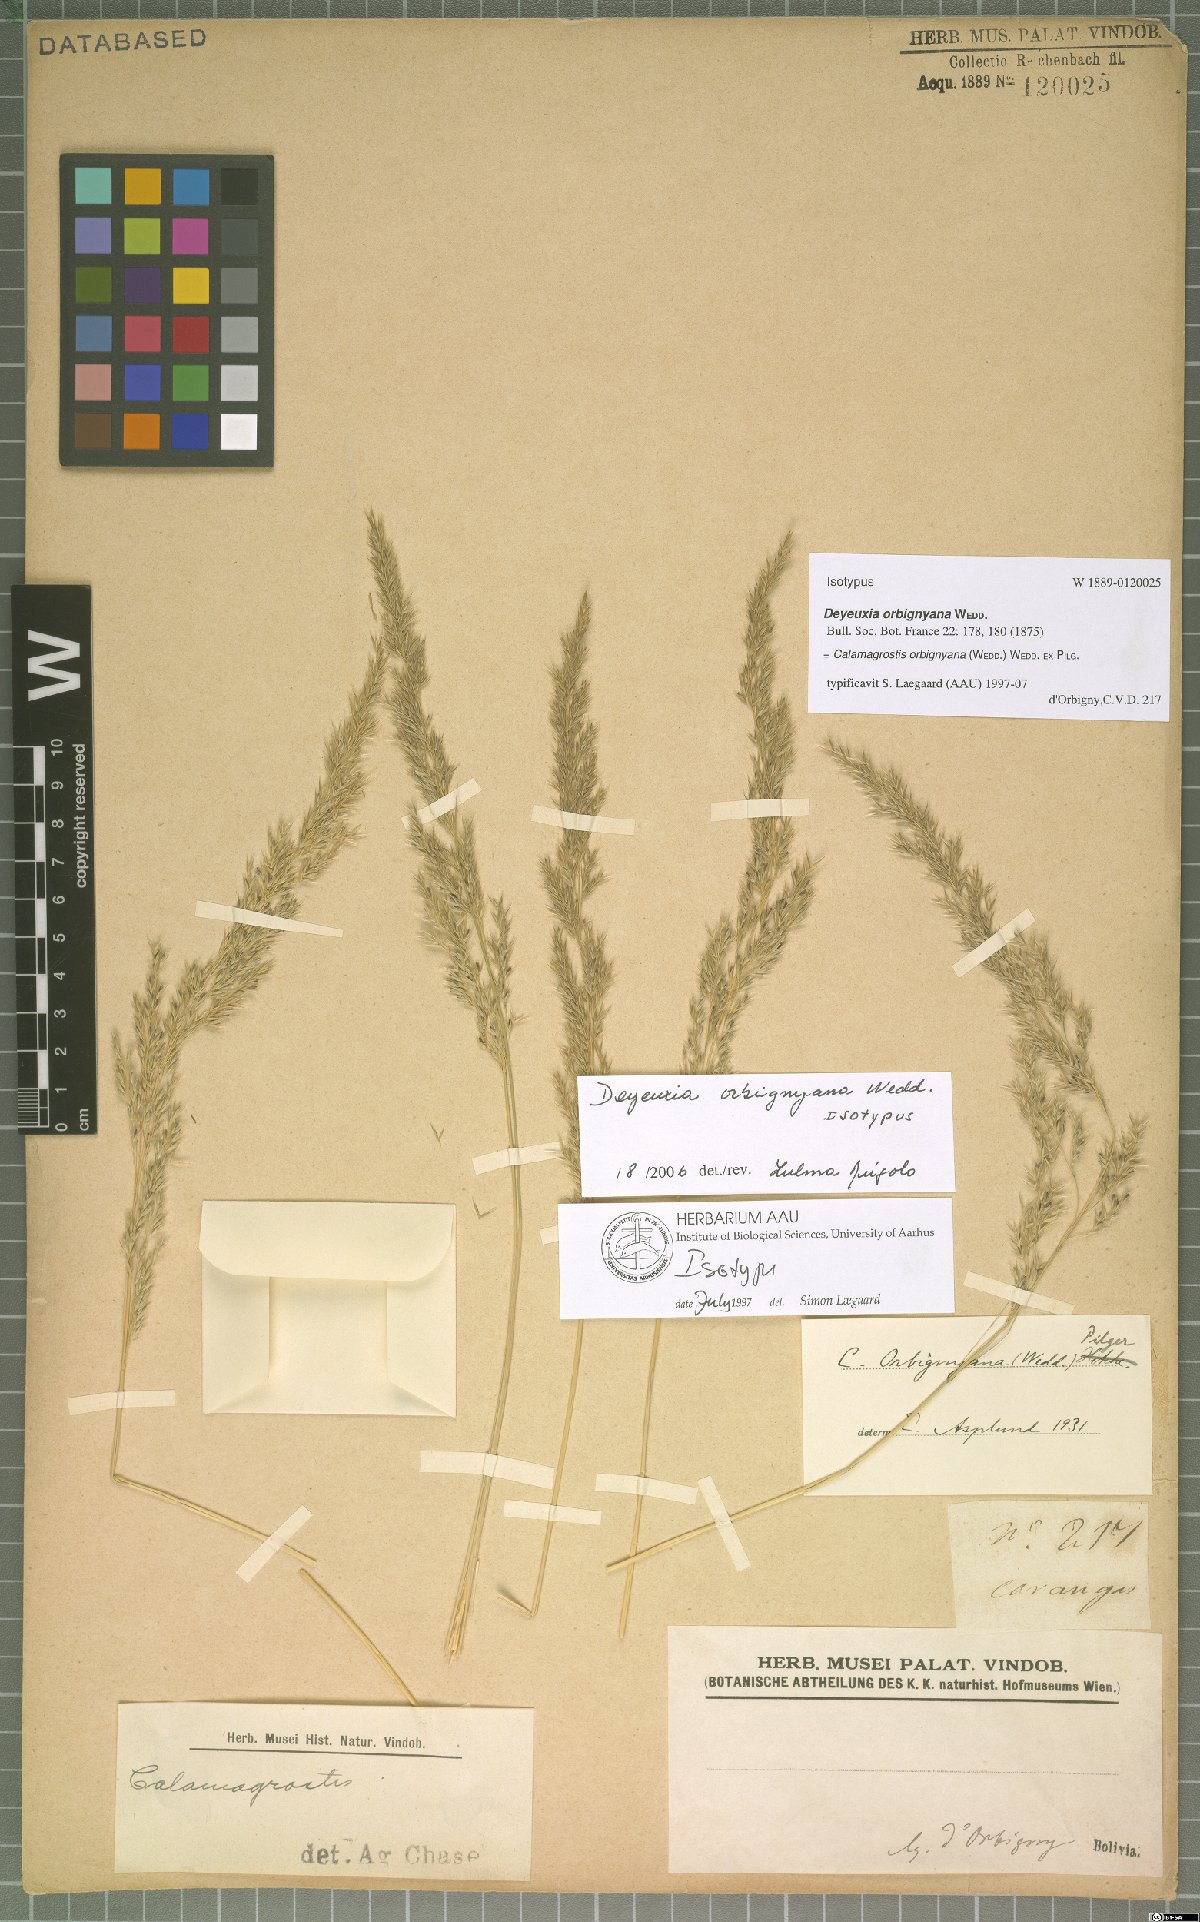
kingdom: Plantae
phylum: Tracheophyta
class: Liliopsida
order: Poales
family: Poaceae
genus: Cinnagrostis
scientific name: Cinnagrostis orbignyana
